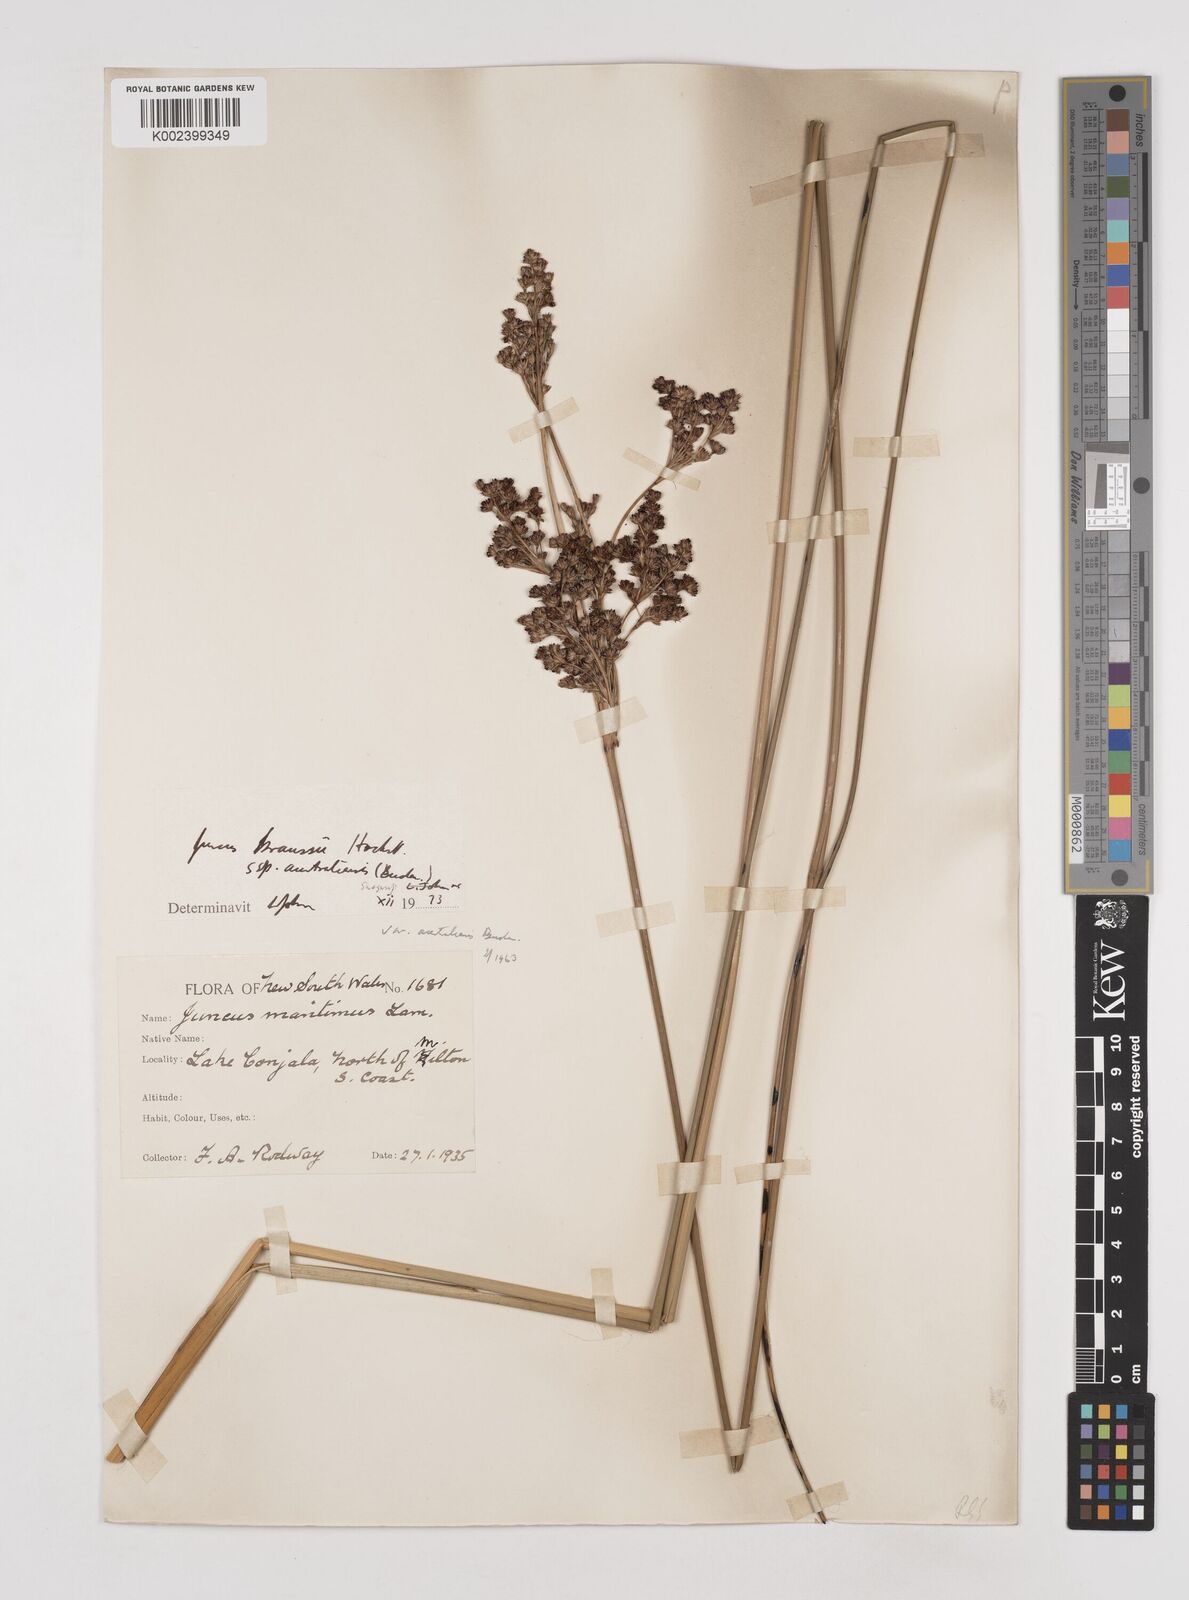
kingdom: Plantae
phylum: Tracheophyta
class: Liliopsida
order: Poales
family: Juncaceae
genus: Juncus
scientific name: Juncus kraussii
